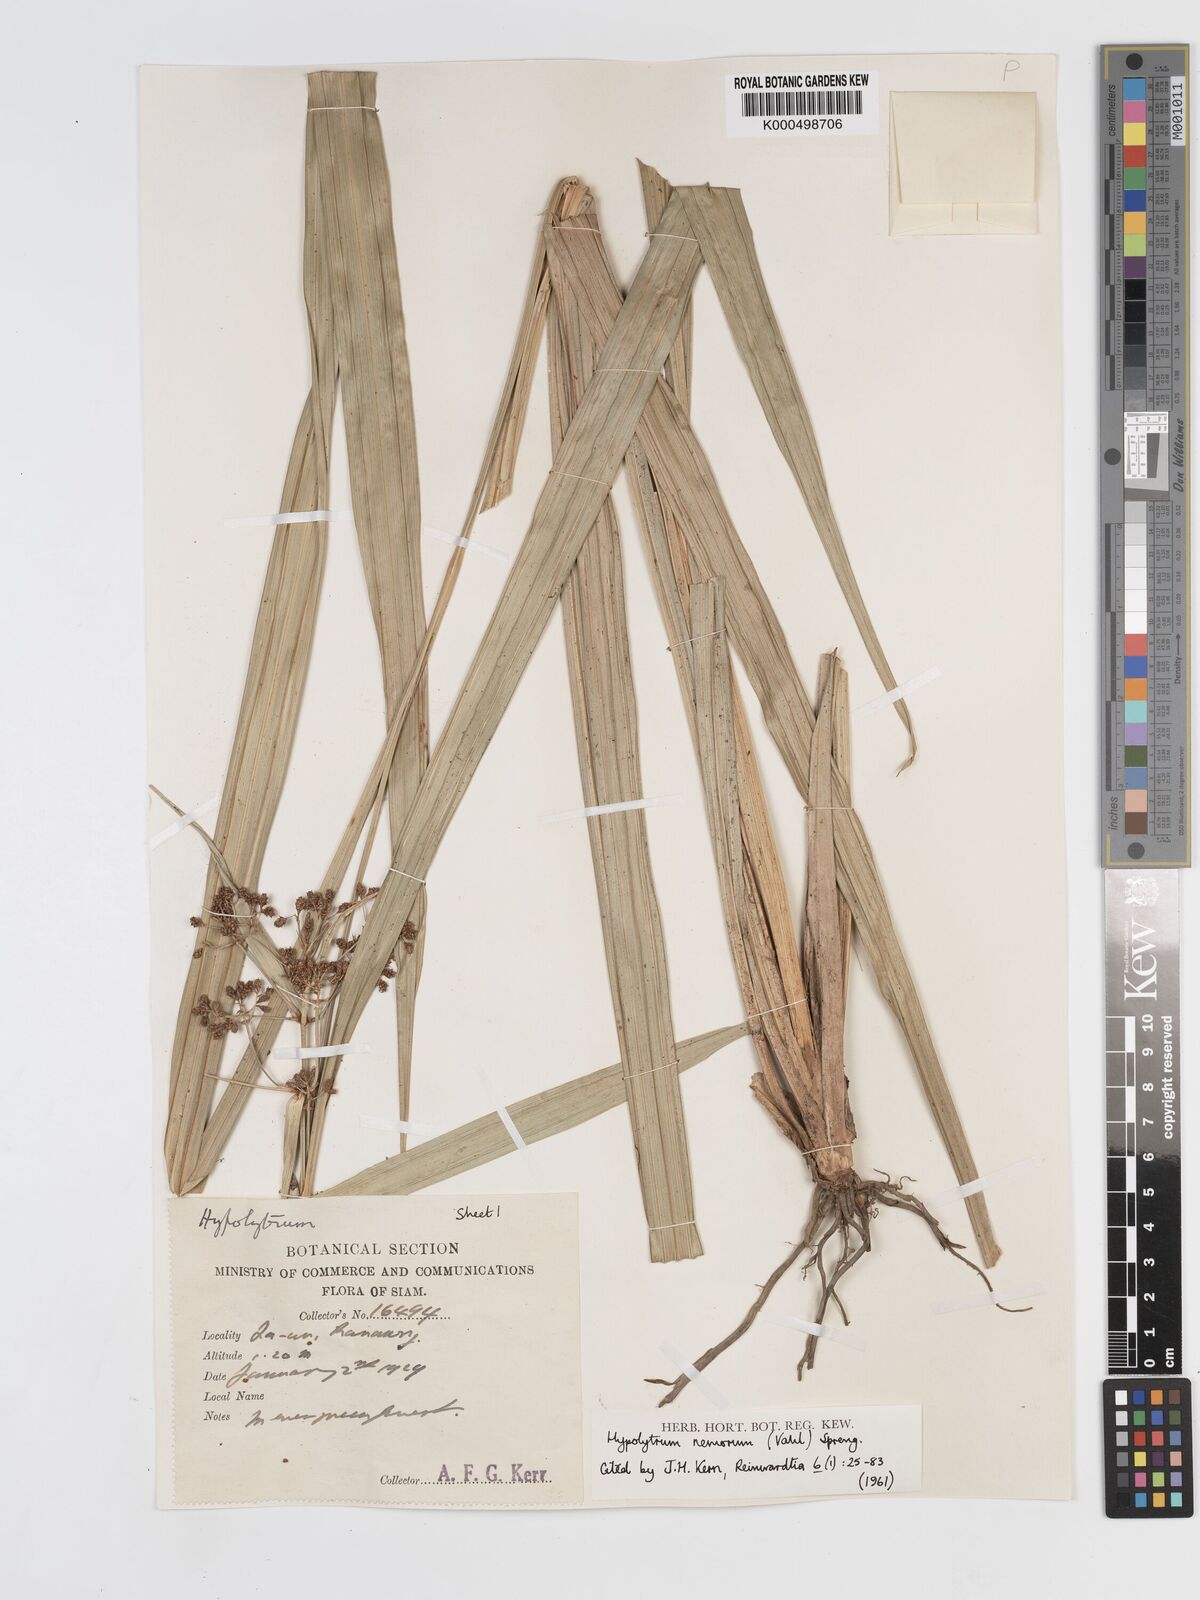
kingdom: Plantae
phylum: Tracheophyta
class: Liliopsida
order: Poales
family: Cyperaceae
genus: Hypolytrum
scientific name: Hypolytrum nemorum
